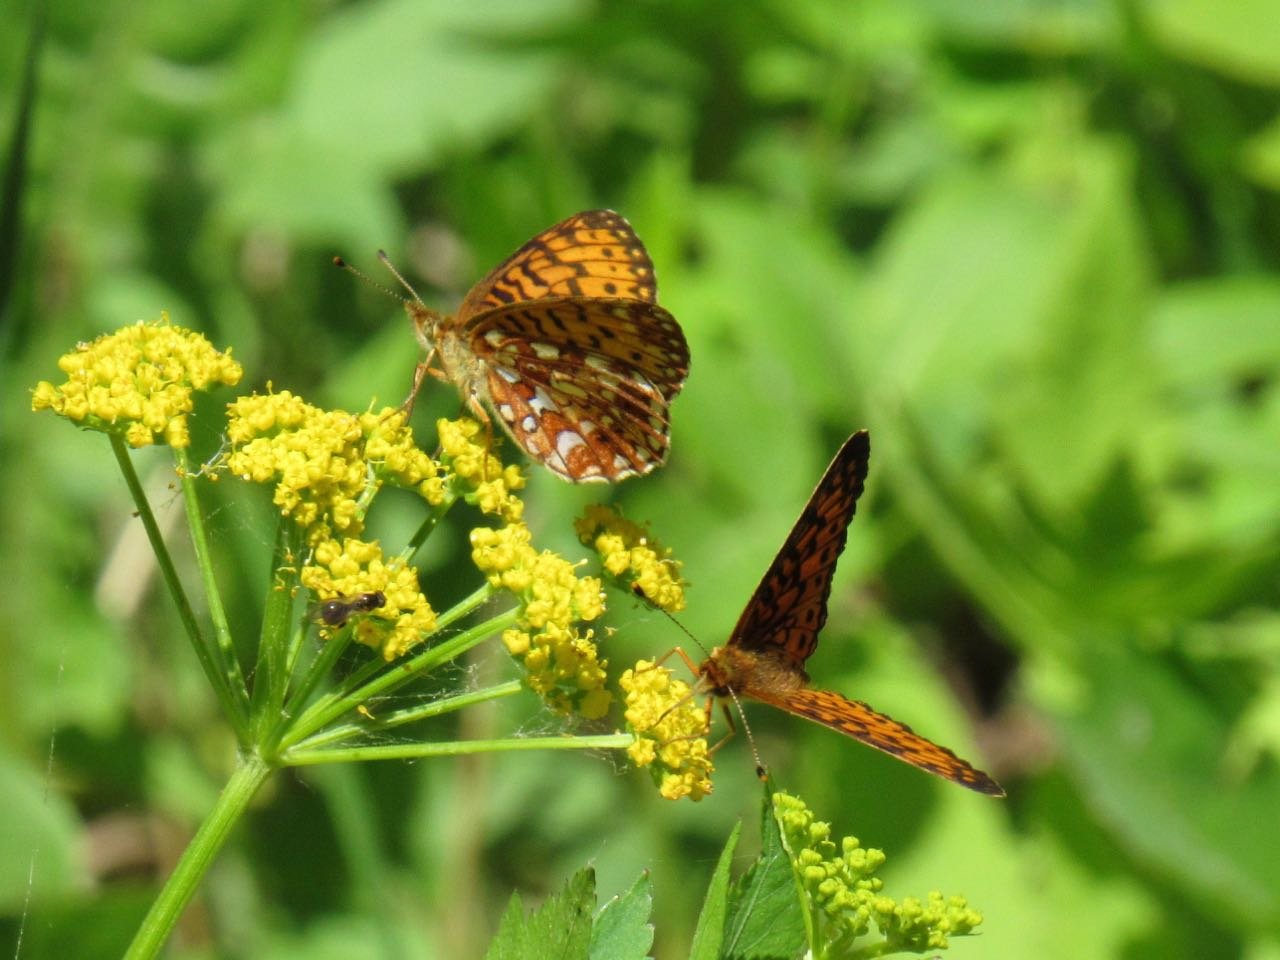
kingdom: Animalia
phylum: Arthropoda
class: Insecta
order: Lepidoptera
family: Nymphalidae
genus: Boloria
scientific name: Boloria selene
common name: Silver-bordered Fritillary
